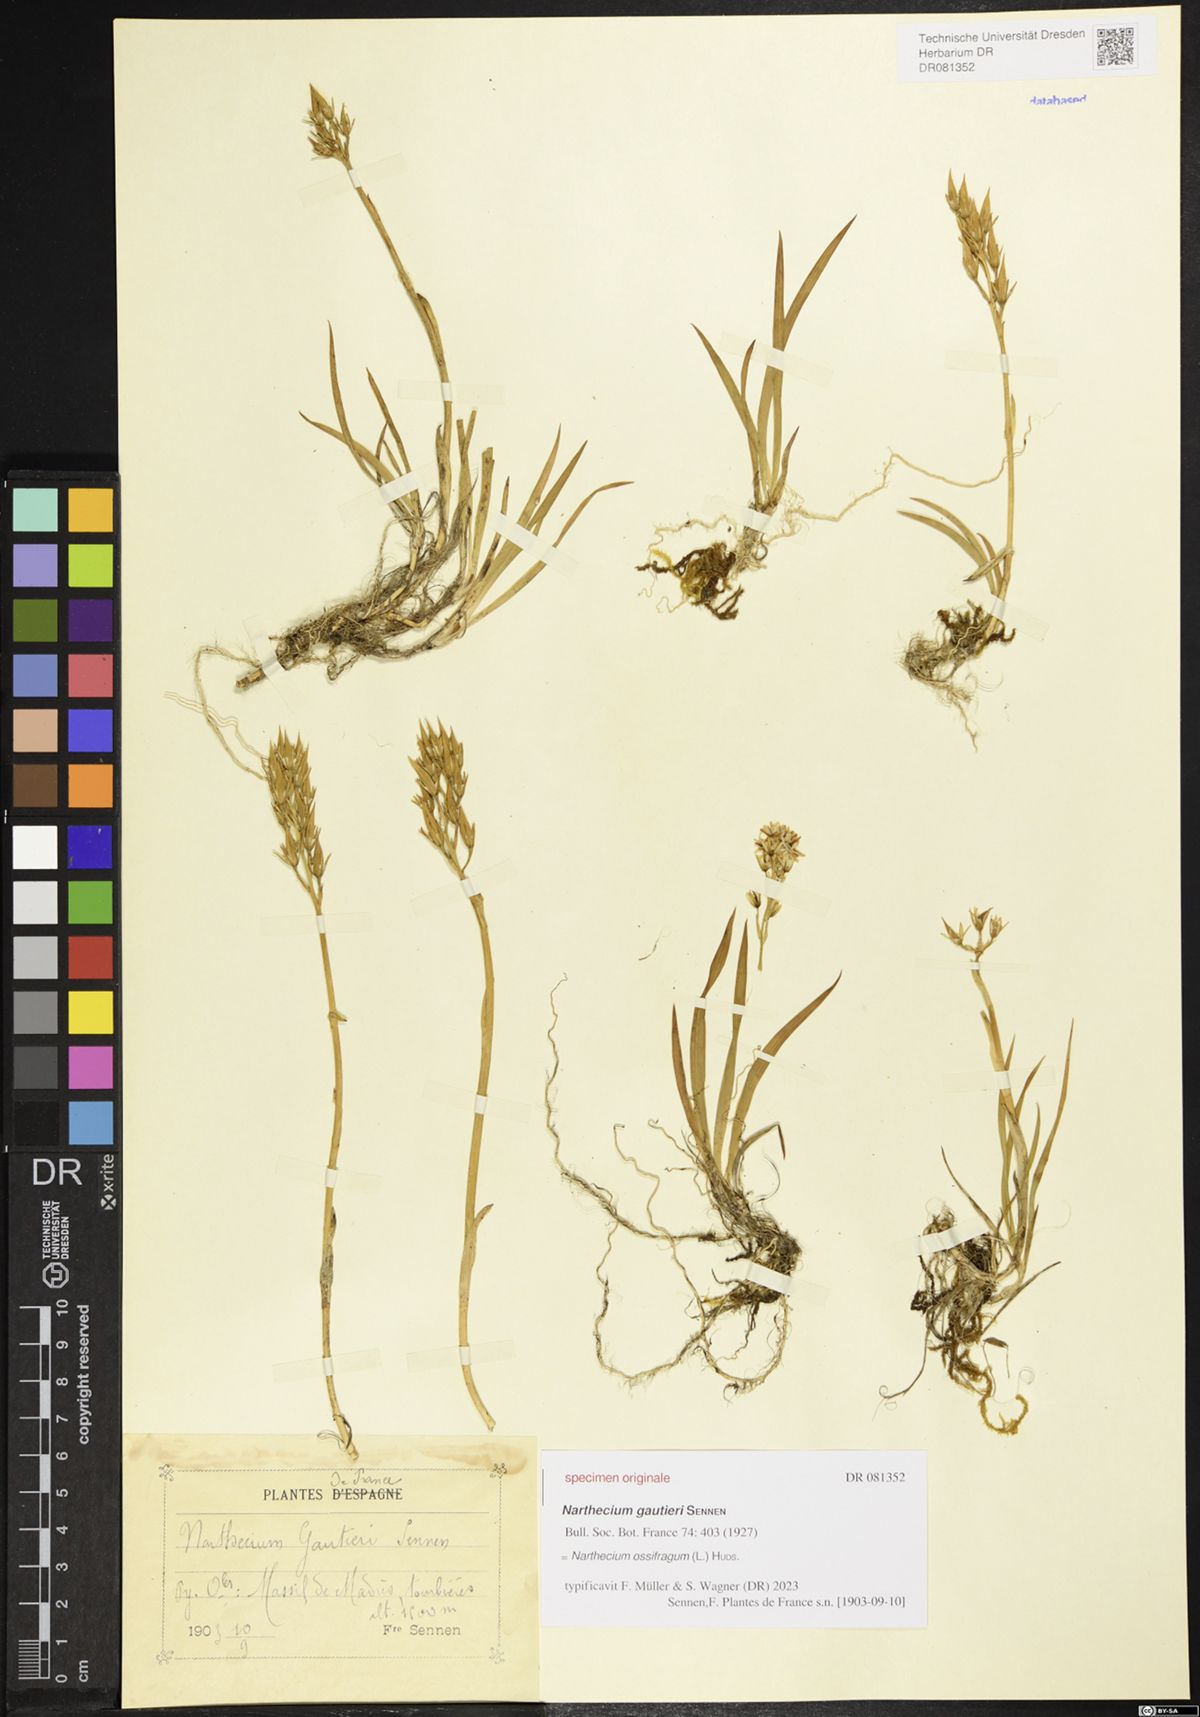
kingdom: Plantae
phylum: Tracheophyta
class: Liliopsida
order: Dioscoreales
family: Nartheciaceae
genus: Narthecium
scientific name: Narthecium ossifragum
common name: Bog asphodel
